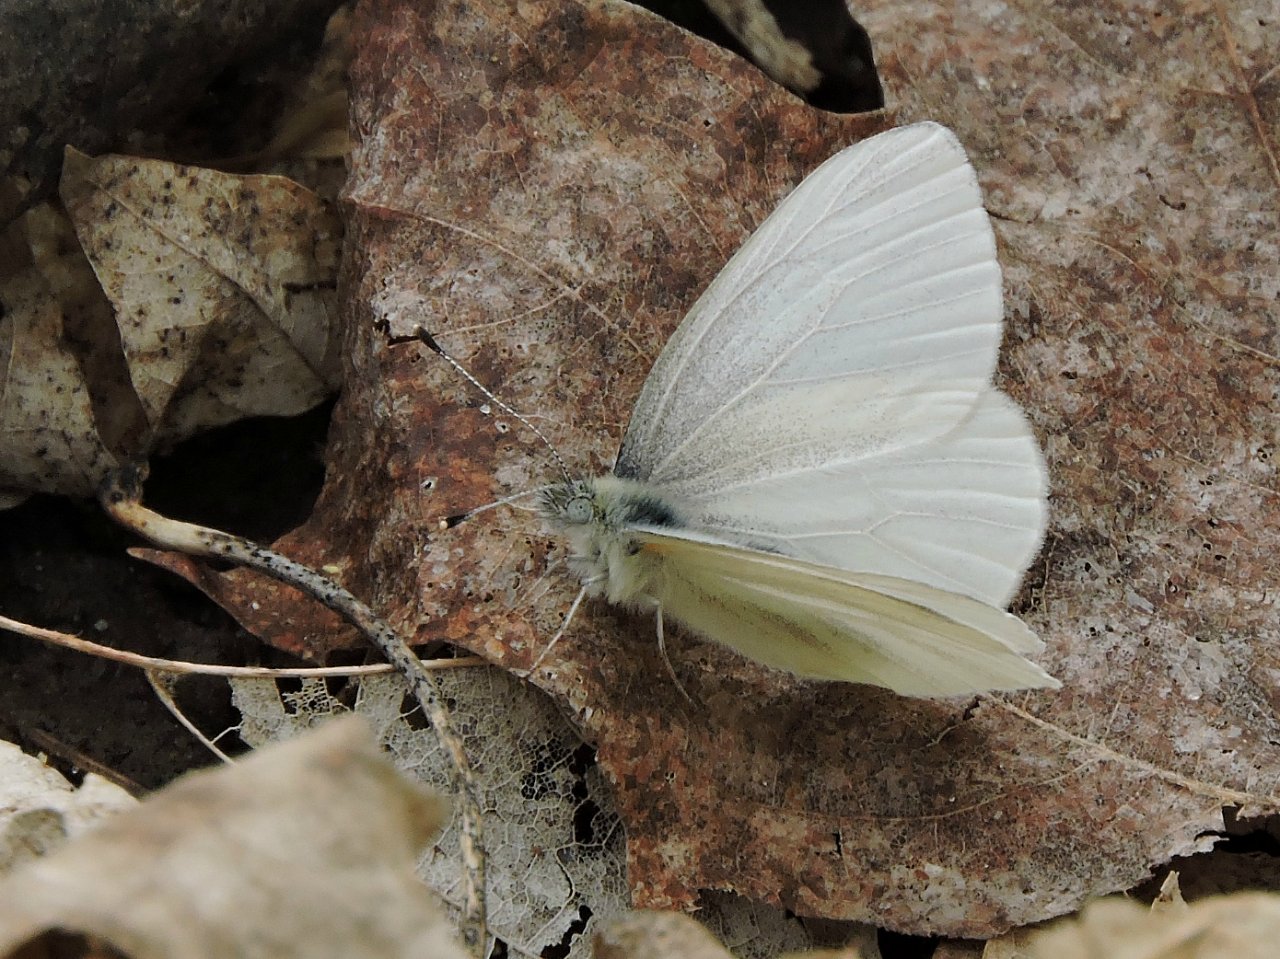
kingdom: Animalia
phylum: Arthropoda
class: Insecta
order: Lepidoptera
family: Pieridae
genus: Pieris
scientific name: Pieris virginiensis
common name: West Virginia White
